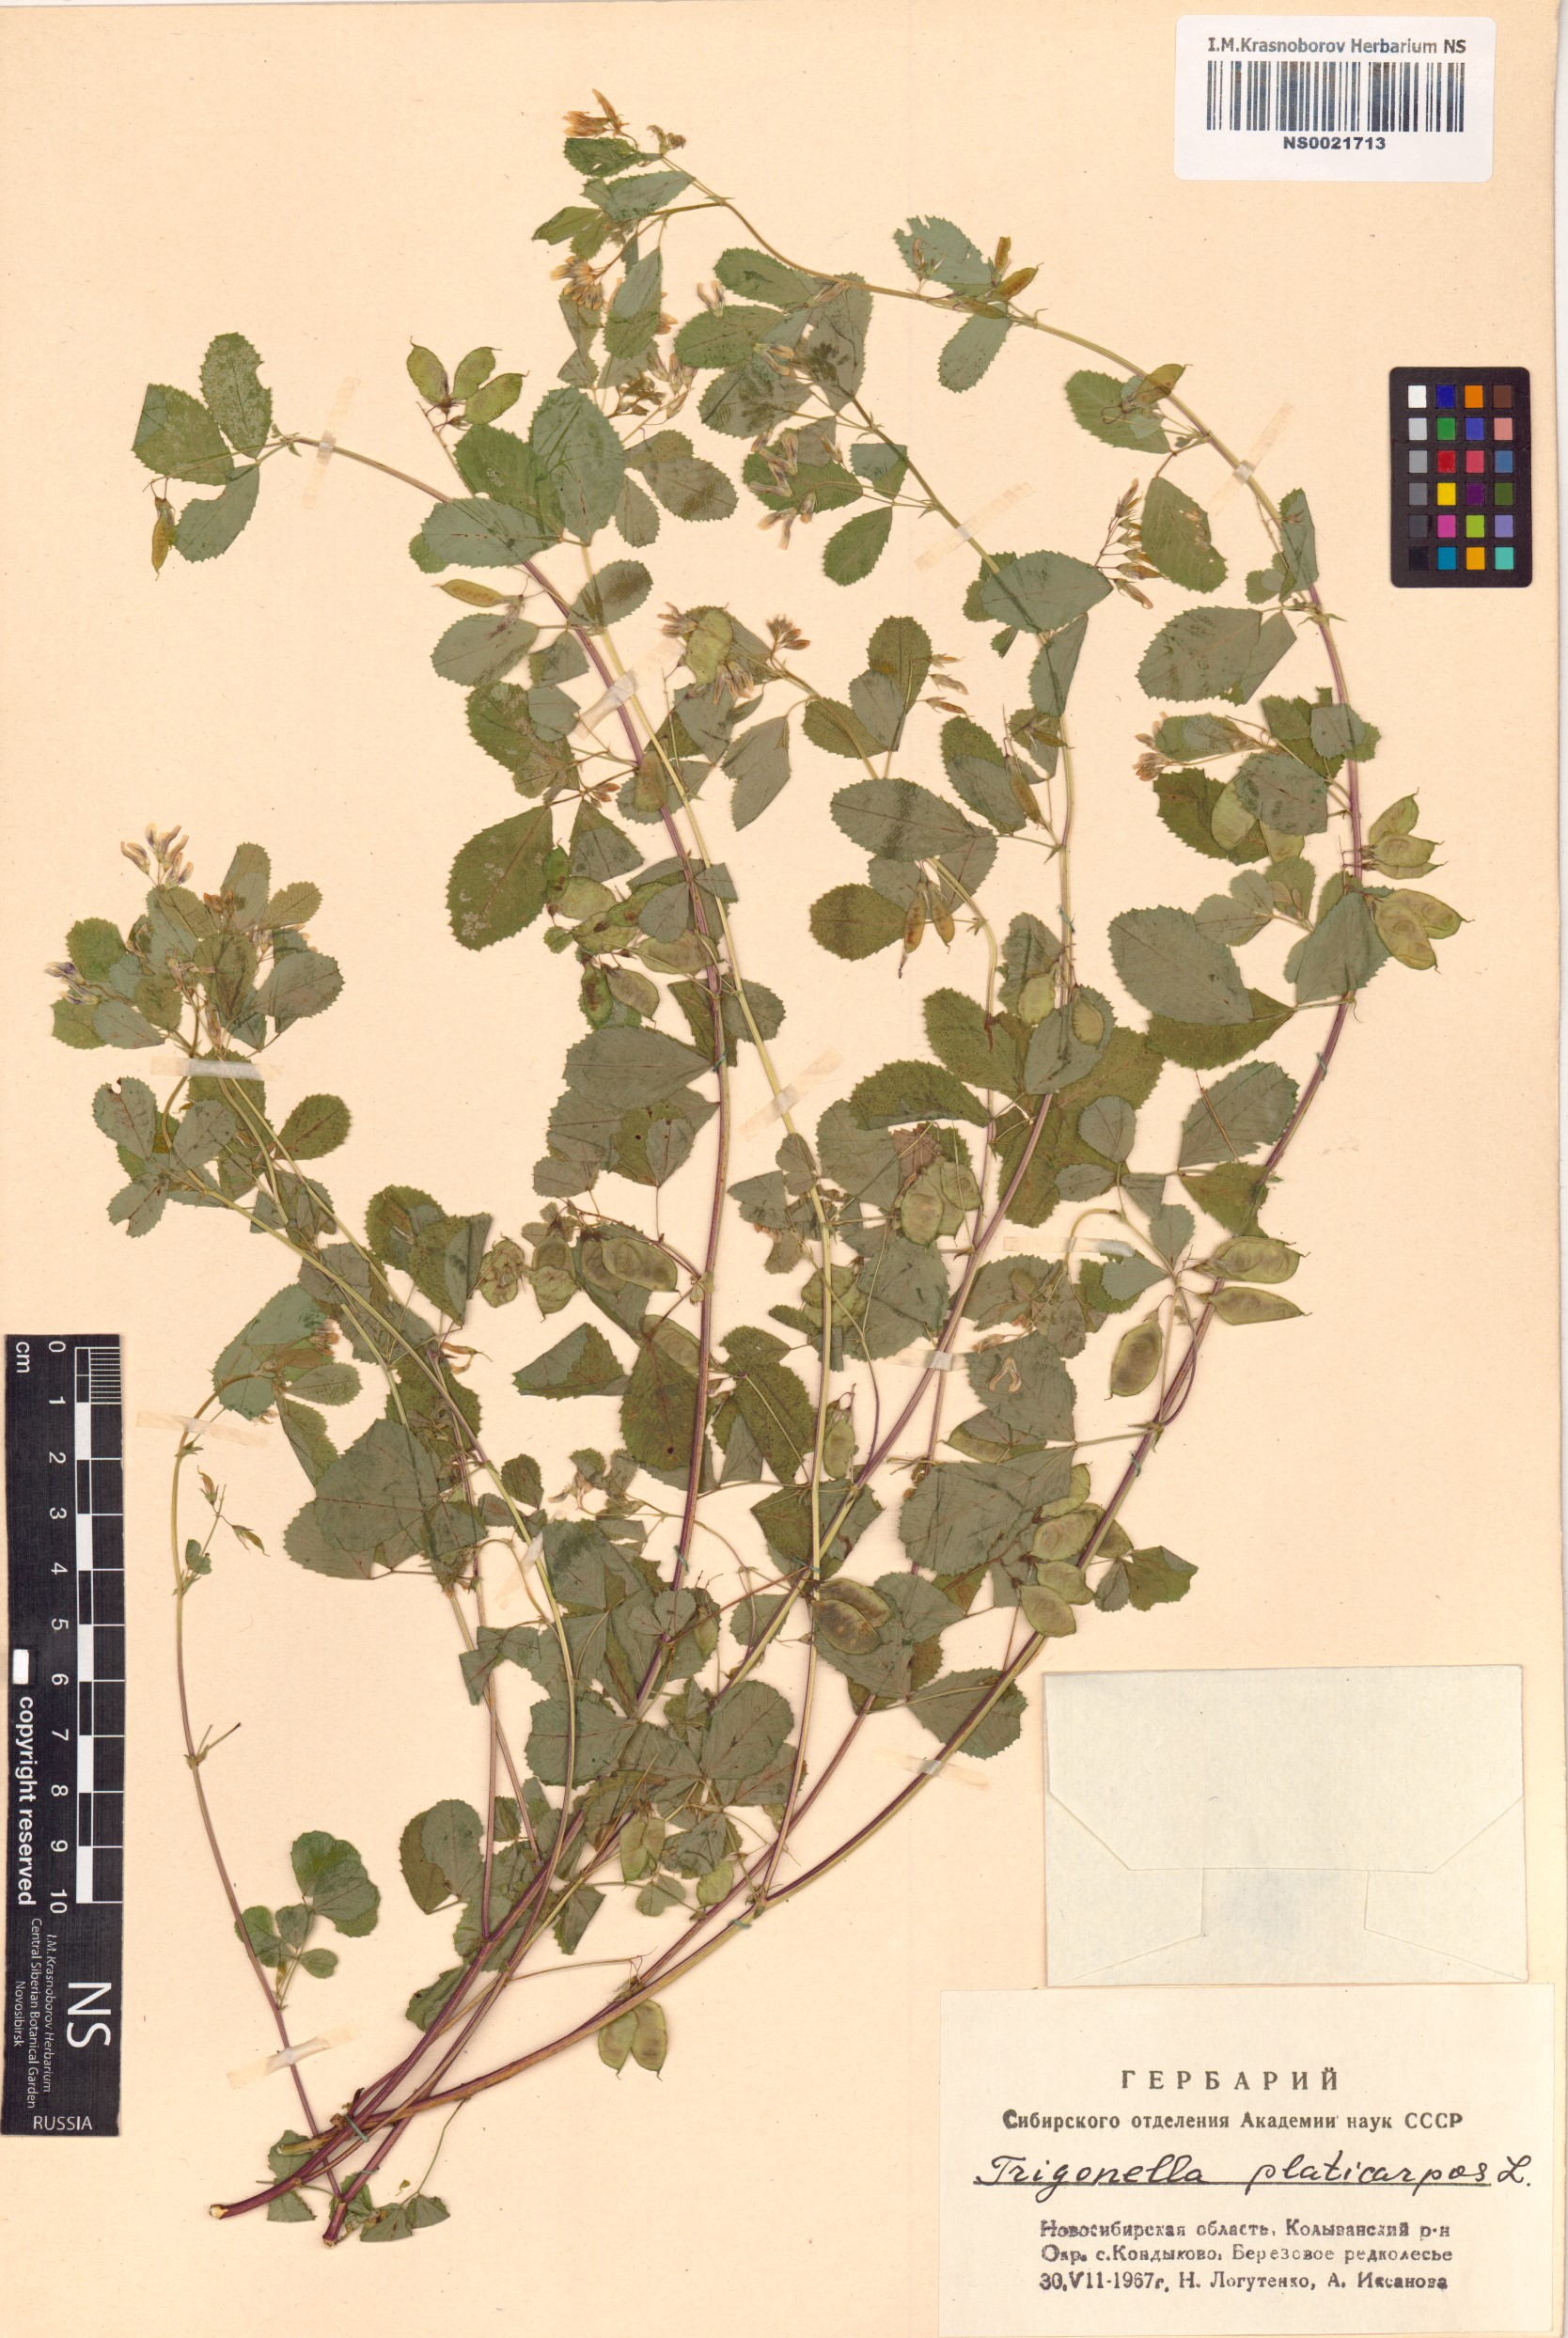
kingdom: Plantae
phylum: Tracheophyta
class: Magnoliopsida
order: Fabales
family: Fabaceae
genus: Medicago
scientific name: Medicago platycarpos
